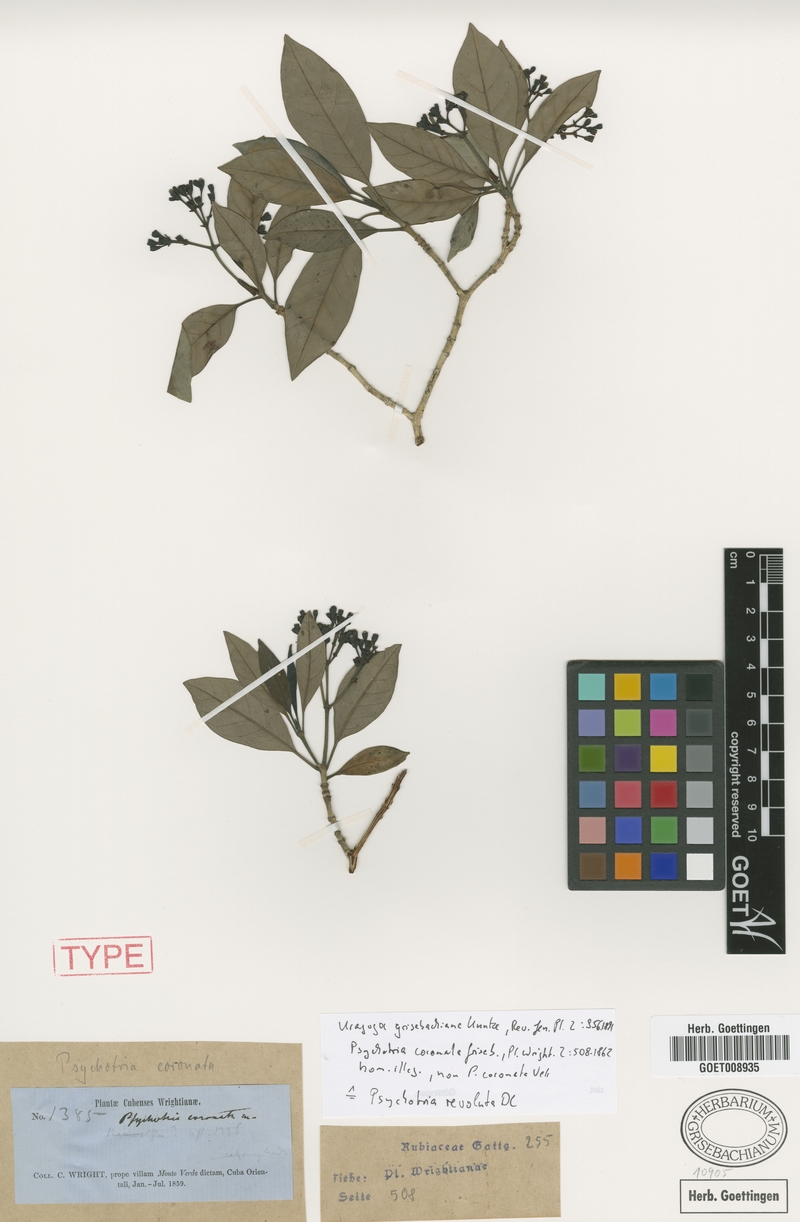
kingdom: Plantae
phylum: Tracheophyta
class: Magnoliopsida
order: Gentianales
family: Rubiaceae
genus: Psychotria
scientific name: Psychotria revoluta
